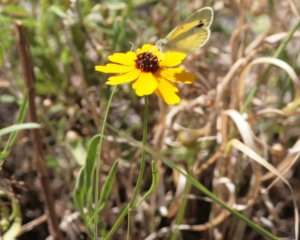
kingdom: Animalia
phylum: Arthropoda
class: Insecta
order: Lepidoptera
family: Pieridae
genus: Nathalis
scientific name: Nathalis iole
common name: Dainty Sulphur
